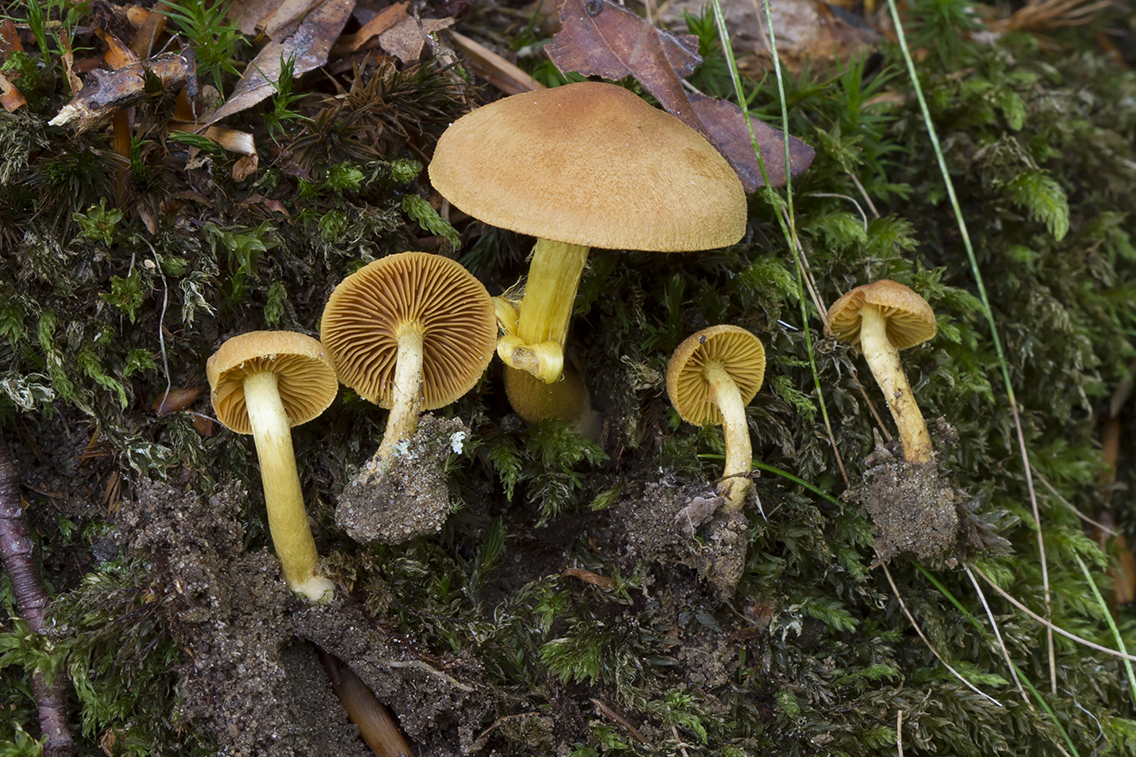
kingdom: Fungi
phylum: Basidiomycota
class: Agaricomycetes
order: Agaricales
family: Cortinariaceae
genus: Cortinarius
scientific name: Cortinarius croceus
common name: Saffron webcap
